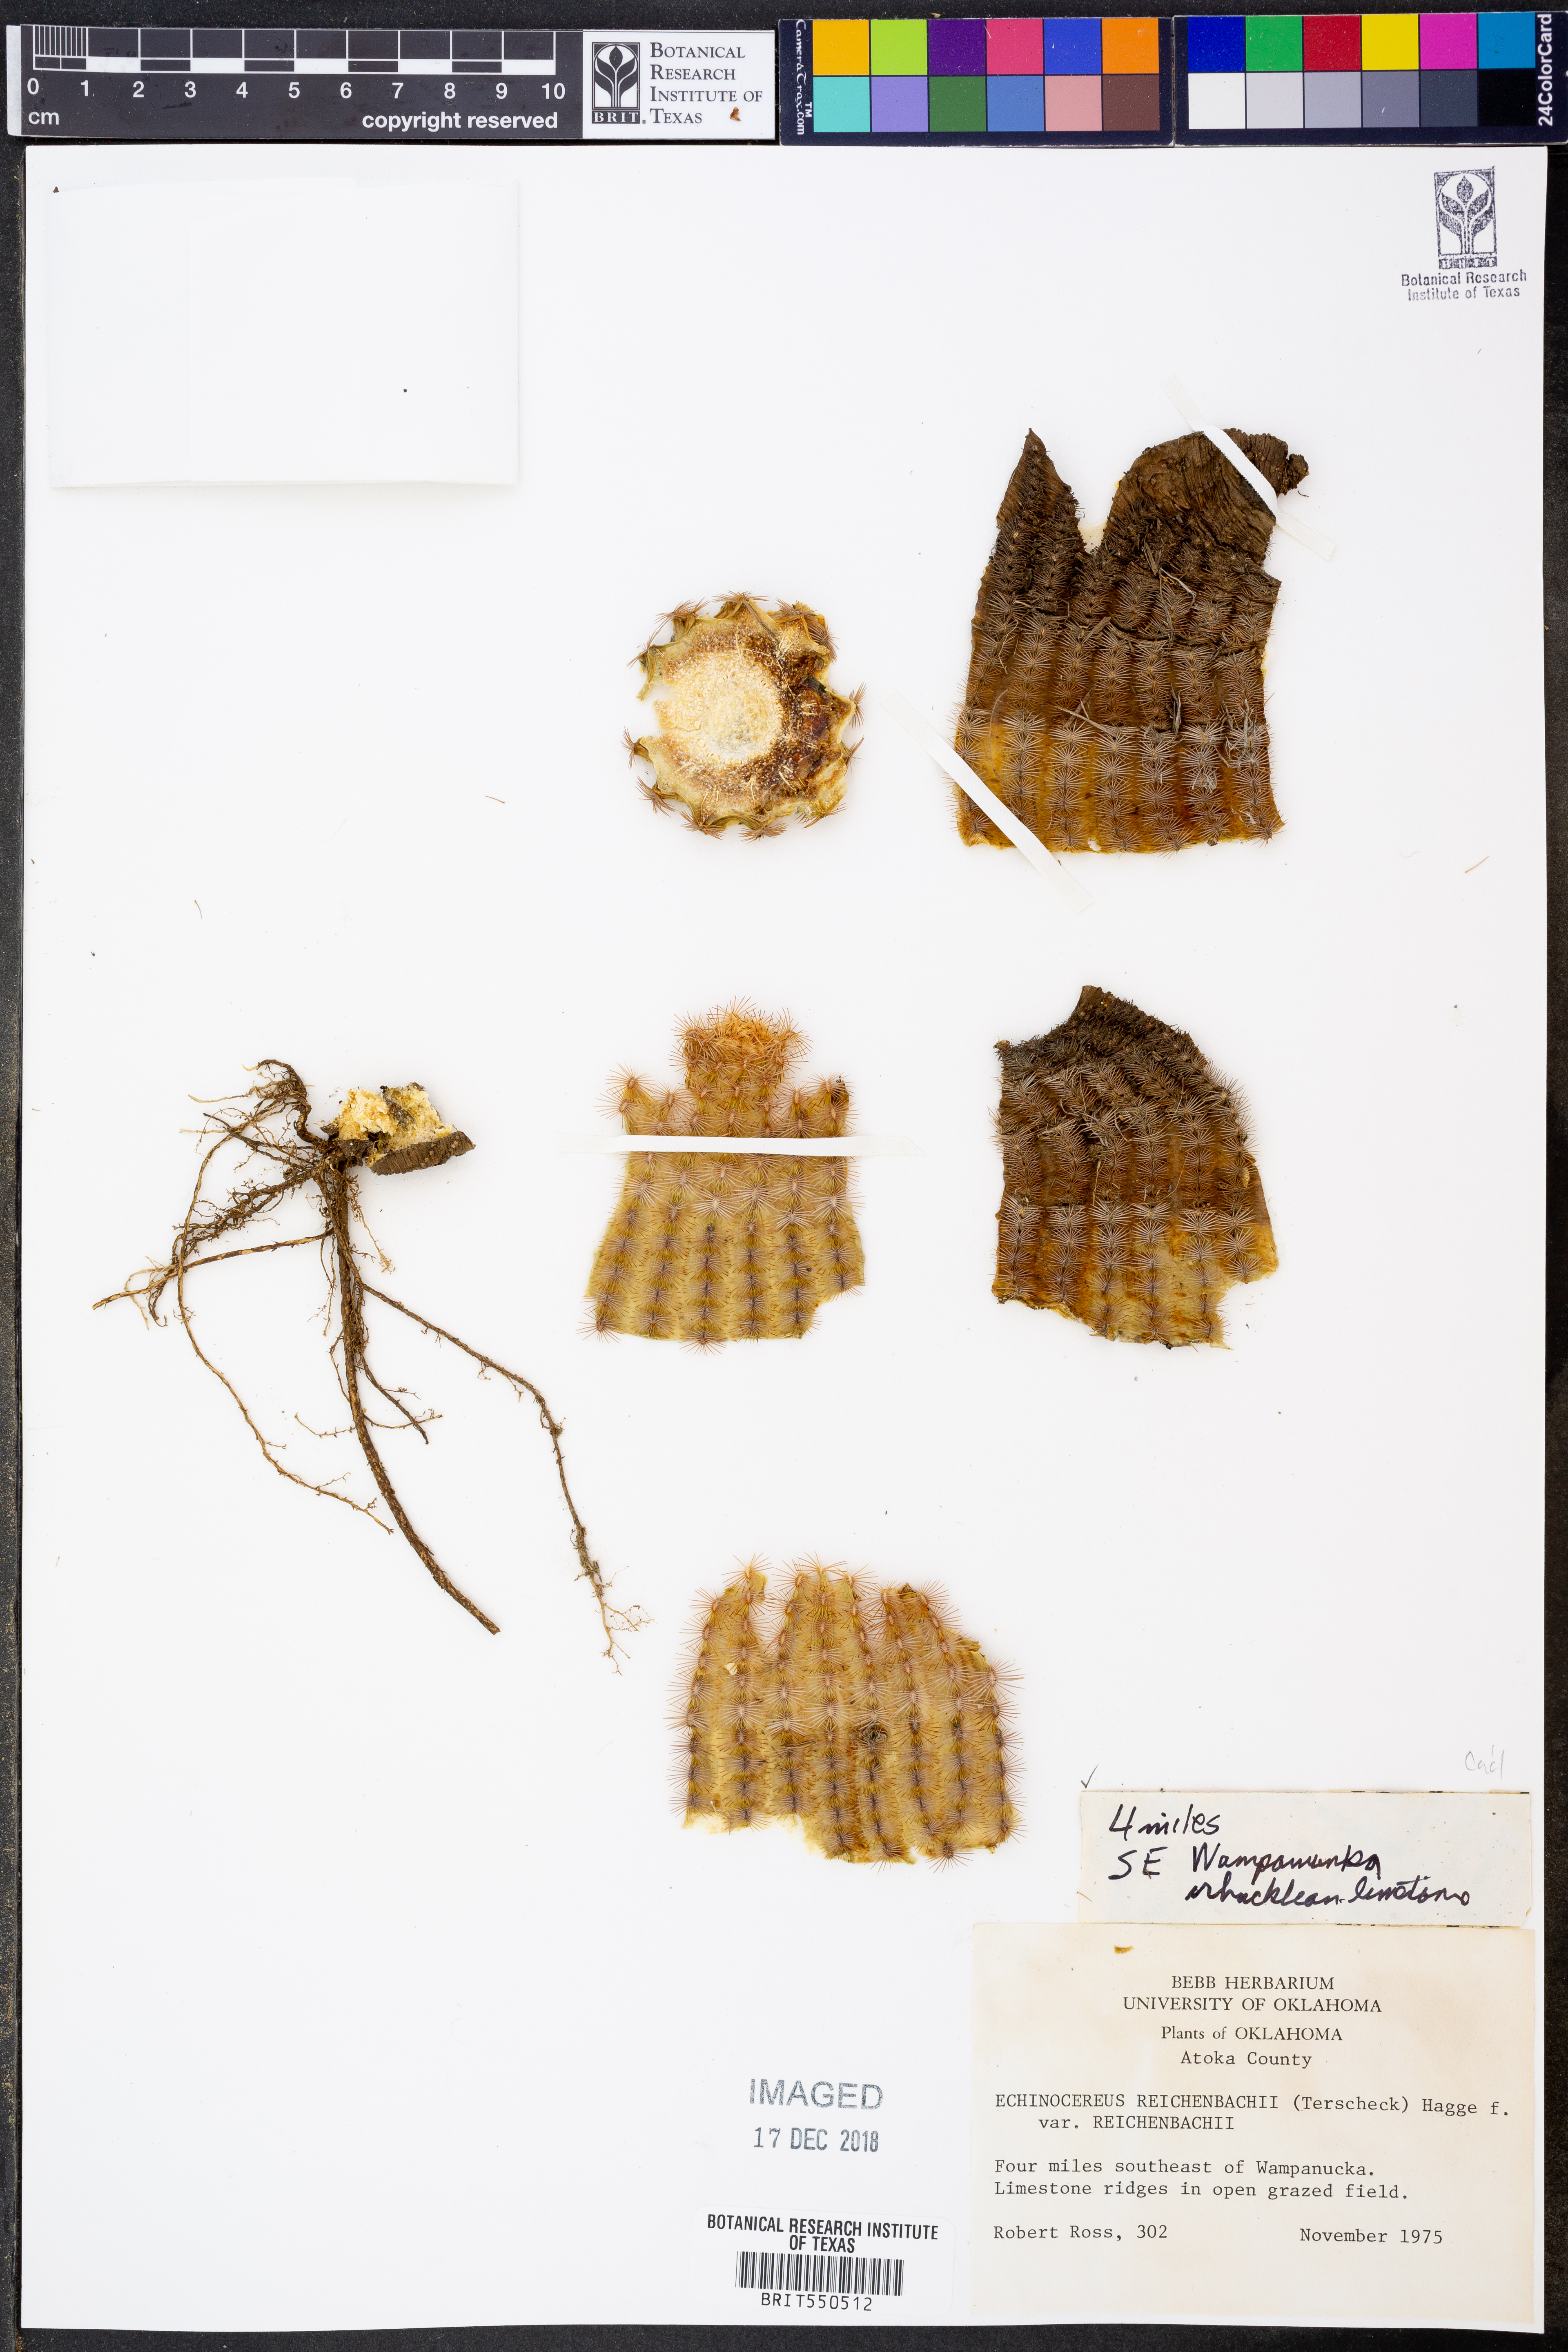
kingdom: Plantae
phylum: Tracheophyta
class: Magnoliopsida
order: Caryophyllales
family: Cactaceae
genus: Echinocereus
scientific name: Echinocereus reichenbachii
